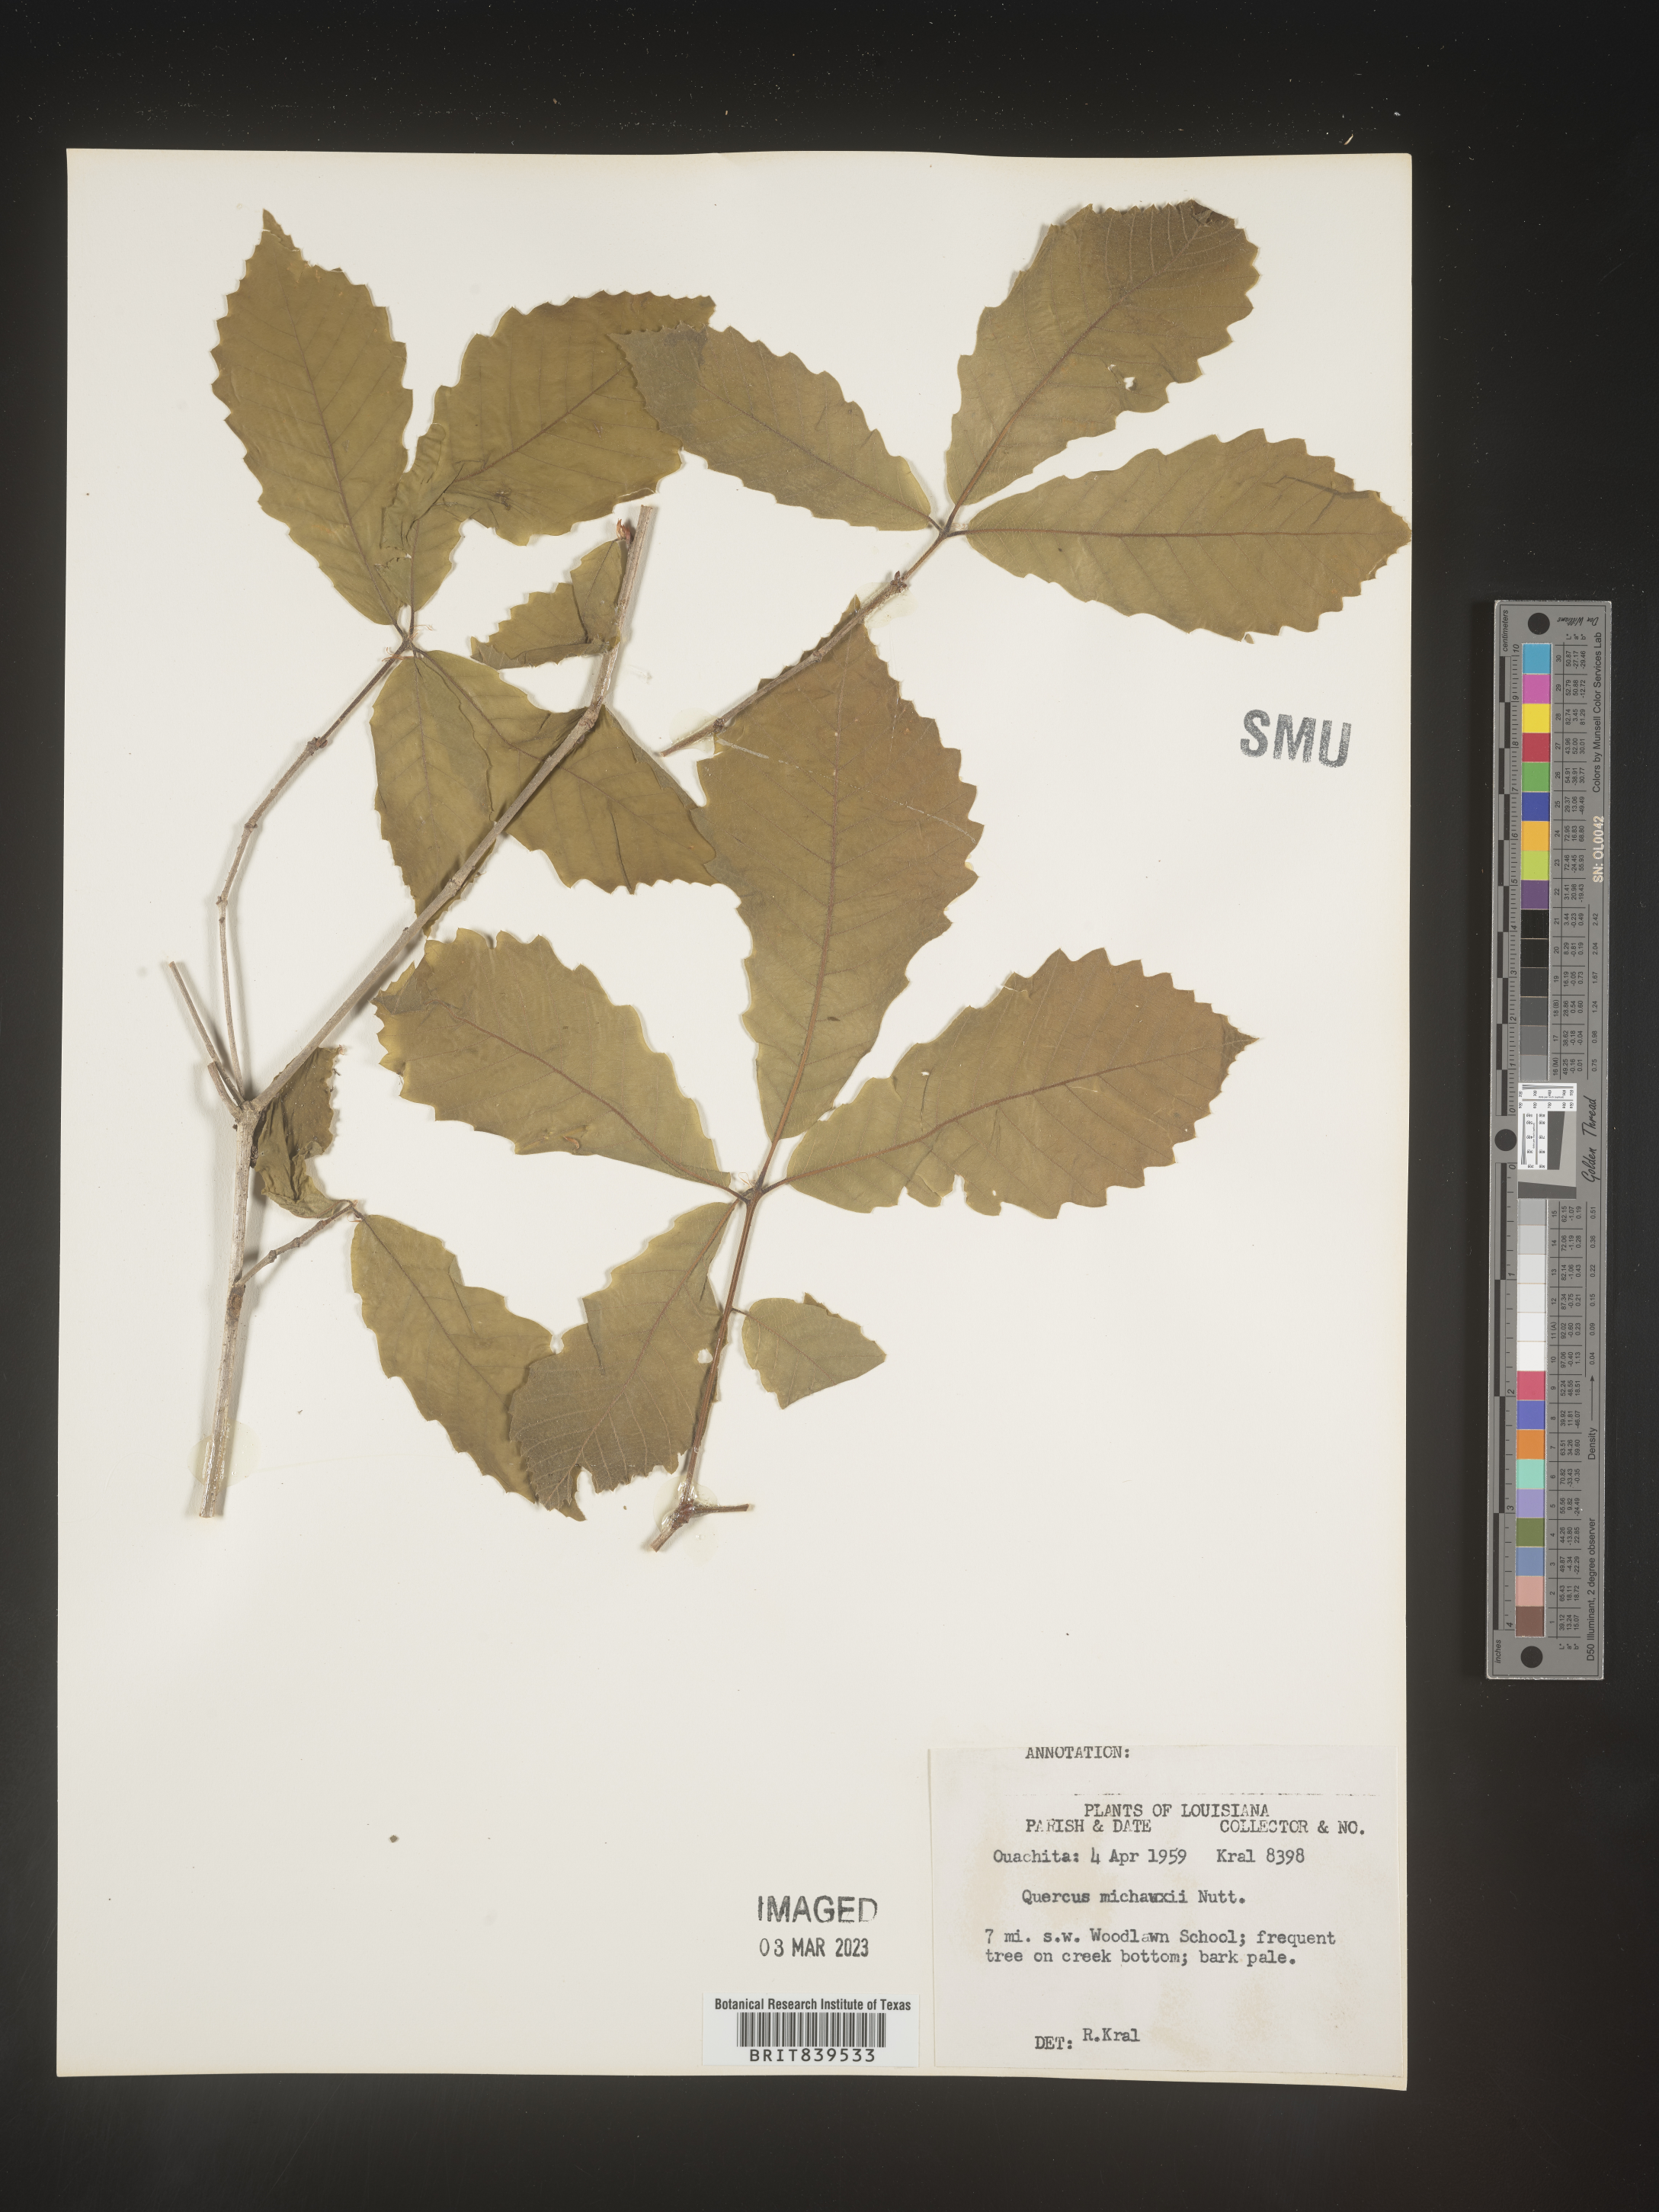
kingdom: Plantae
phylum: Tracheophyta
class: Magnoliopsida
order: Fagales
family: Fagaceae
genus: Quercus
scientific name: Quercus michauxii
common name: Swamp chestnut oak
